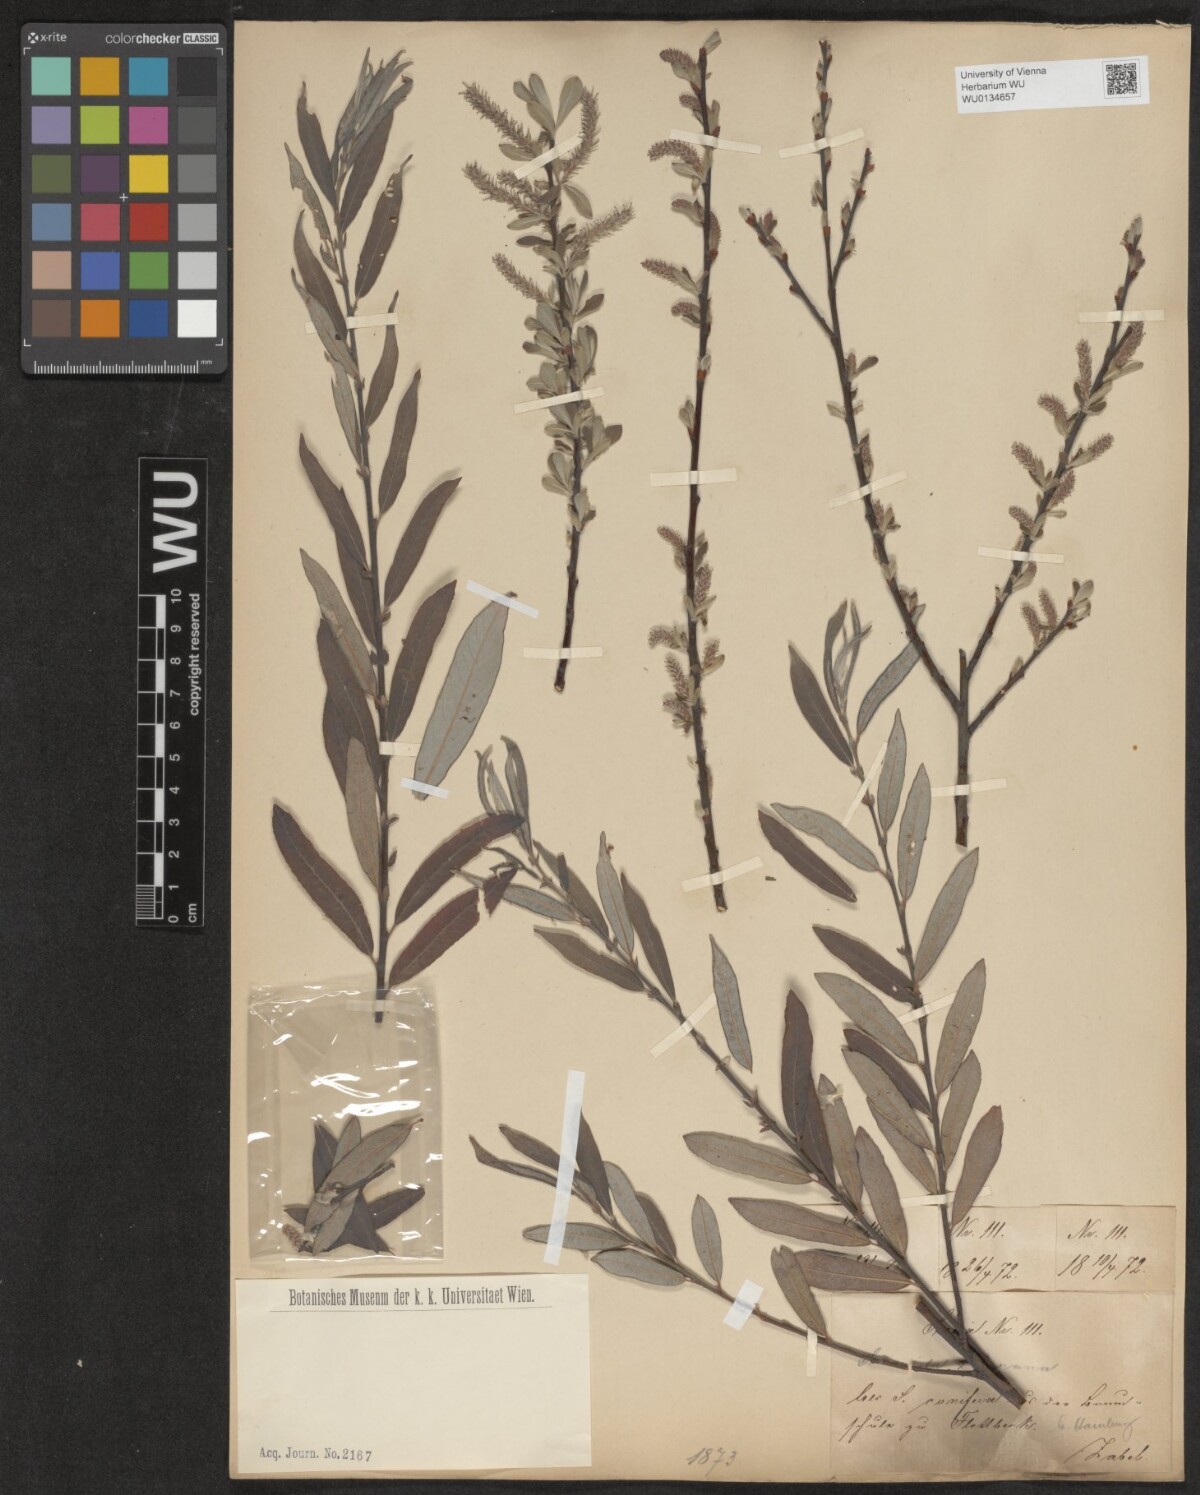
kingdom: Plantae
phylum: Tracheophyta
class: Magnoliopsida
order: Malpighiales
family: Salicaceae
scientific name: Salicaceae
